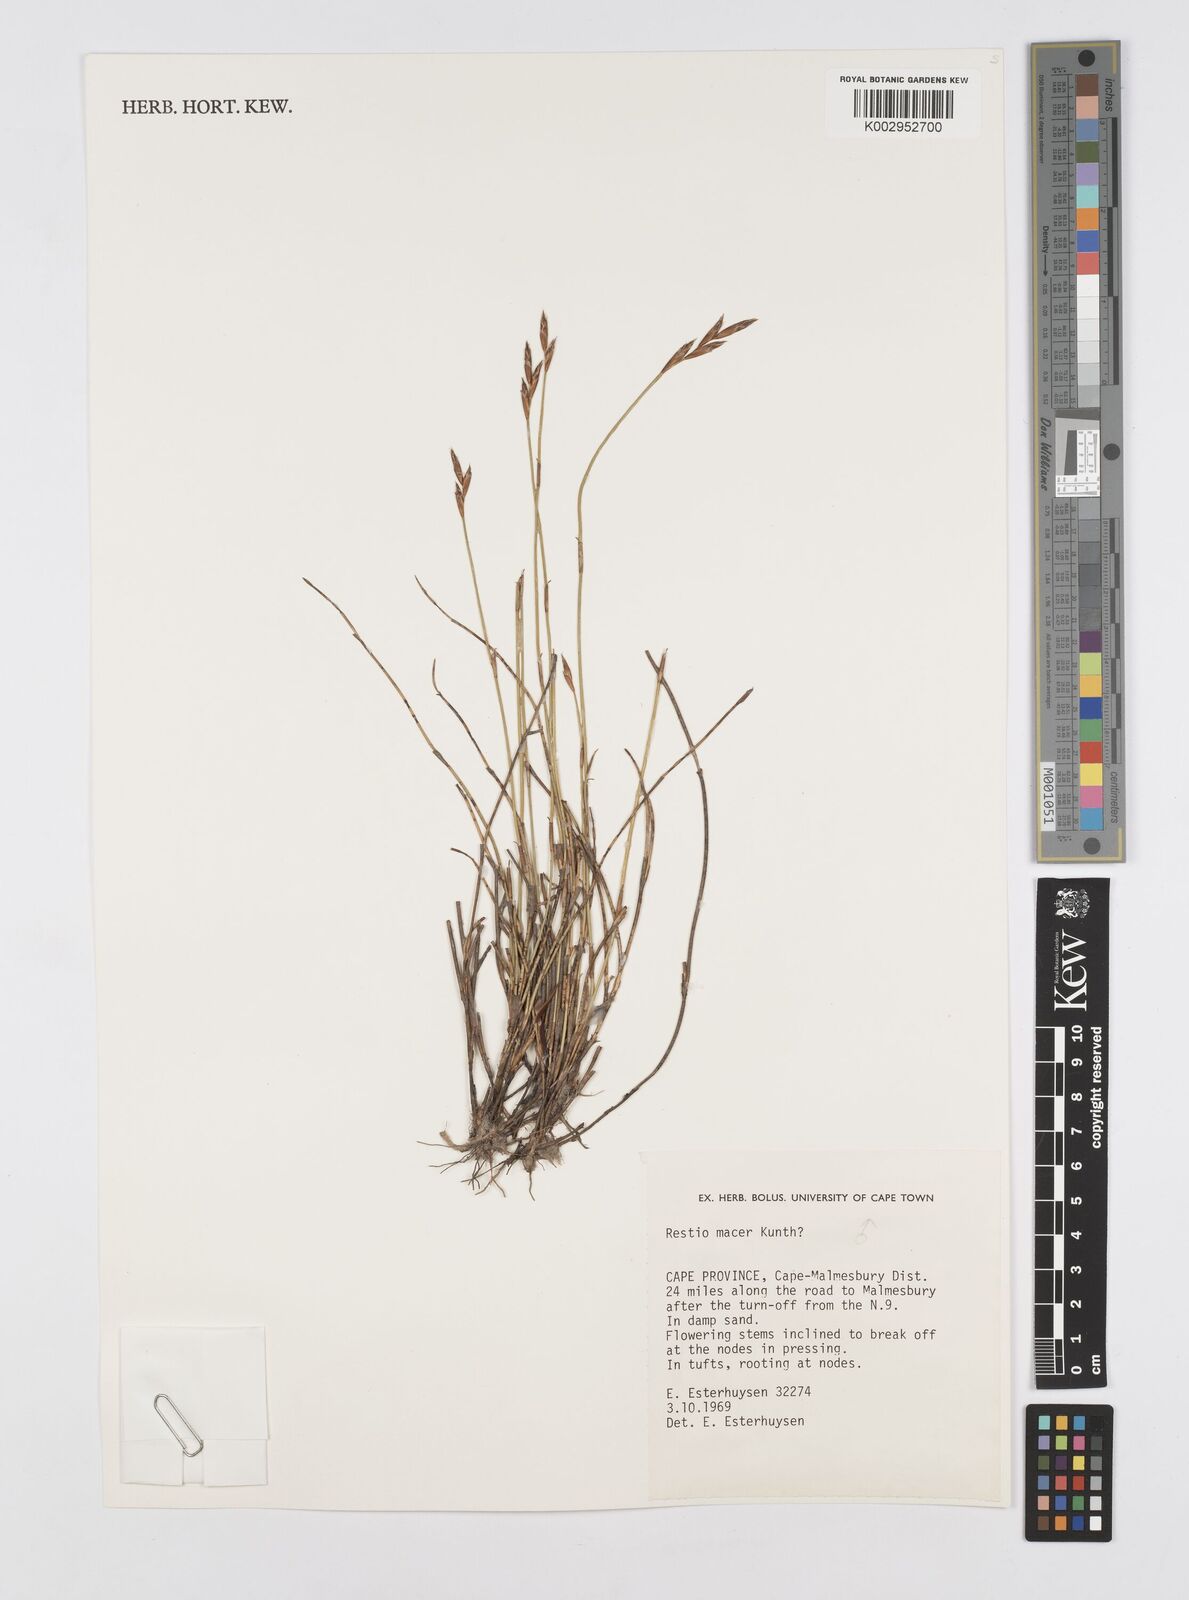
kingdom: Plantae
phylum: Tracheophyta
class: Liliopsida
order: Poales
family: Restionaceae
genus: Restio
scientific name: Restio macer
